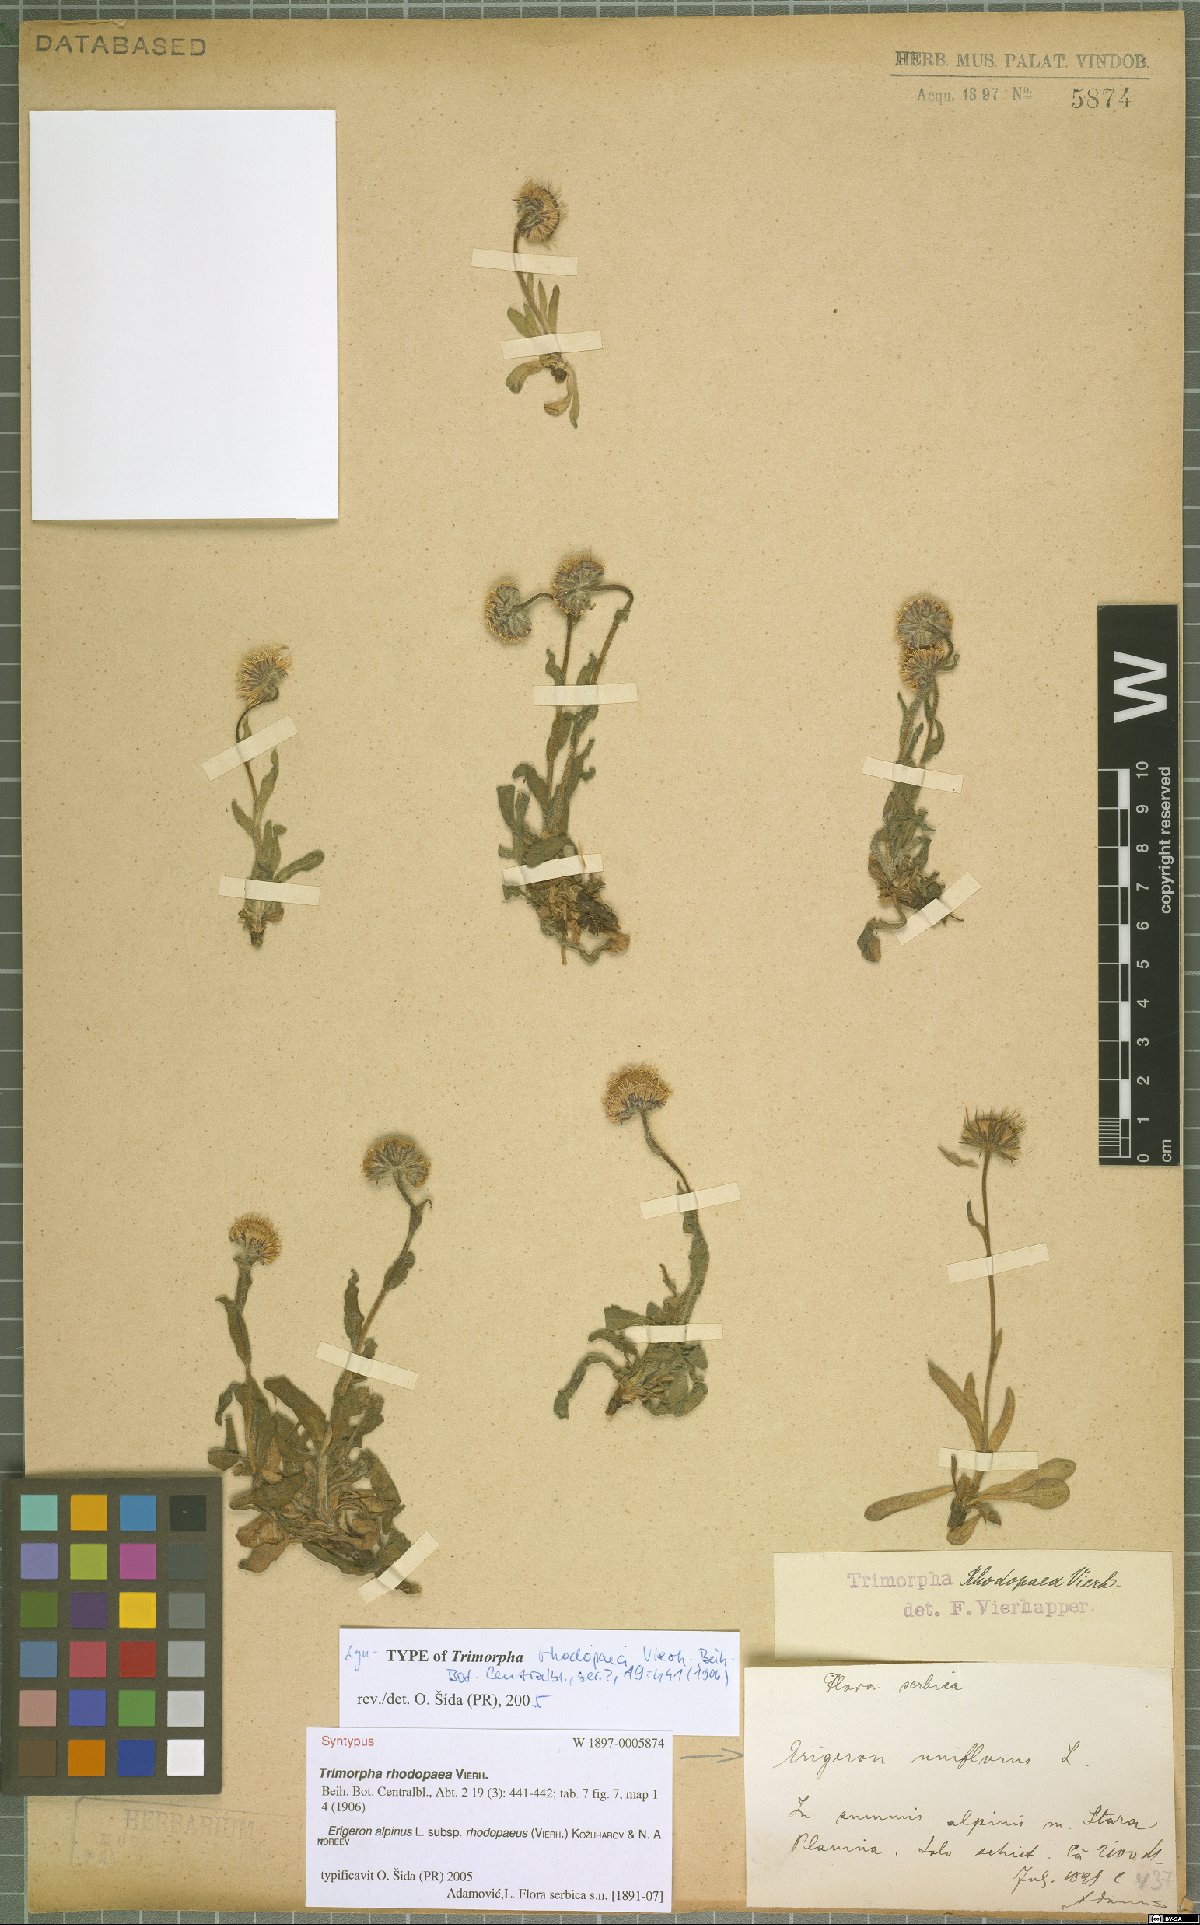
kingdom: Plantae
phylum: Tracheophyta
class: Magnoliopsida
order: Asterales
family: Asteraceae
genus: Erigeron
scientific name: Erigeron alpinus
